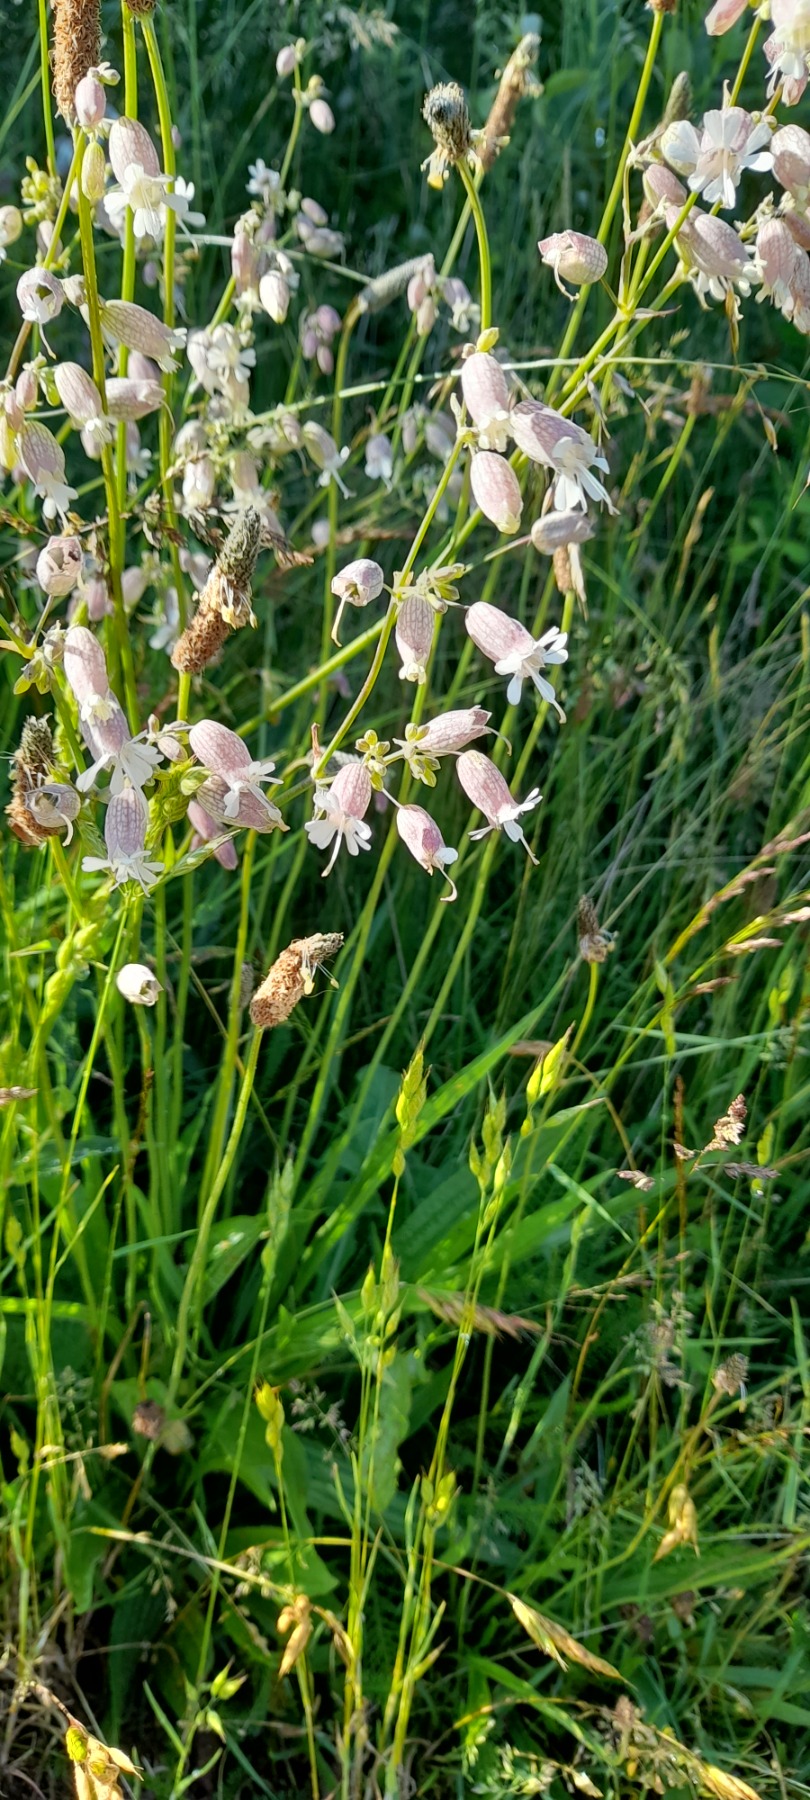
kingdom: Plantae
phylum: Tracheophyta
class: Magnoliopsida
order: Caryophyllales
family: Caryophyllaceae
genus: Silene
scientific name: Silene vulgaris
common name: Blæresmælde
